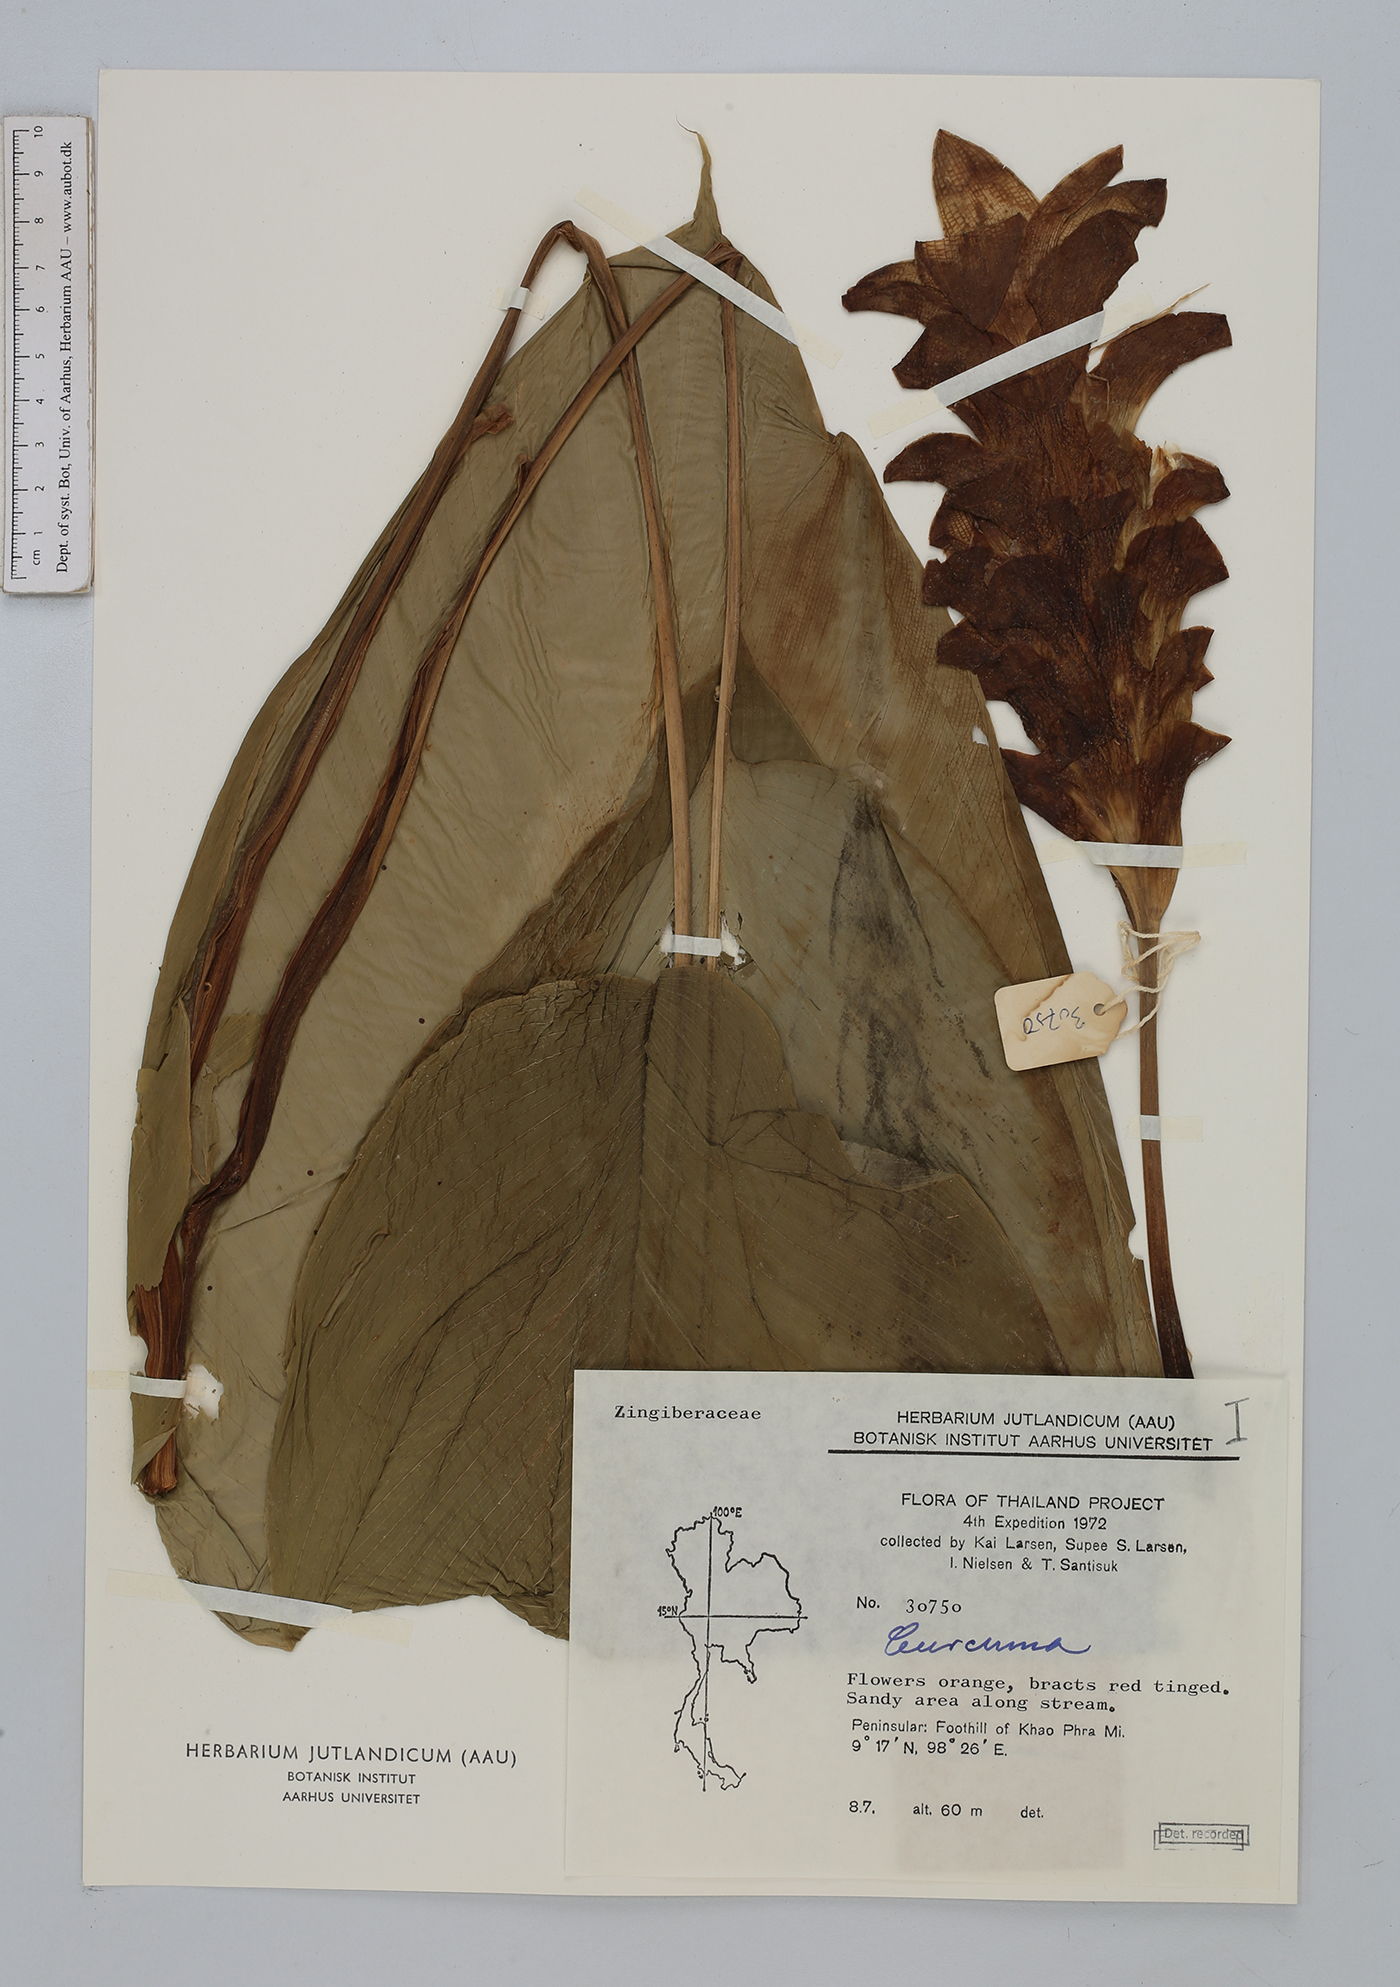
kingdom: Plantae
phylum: Tracheophyta
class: Liliopsida
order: Zingiberales
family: Zingiberaceae
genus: Curcuma
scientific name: Curcuma
